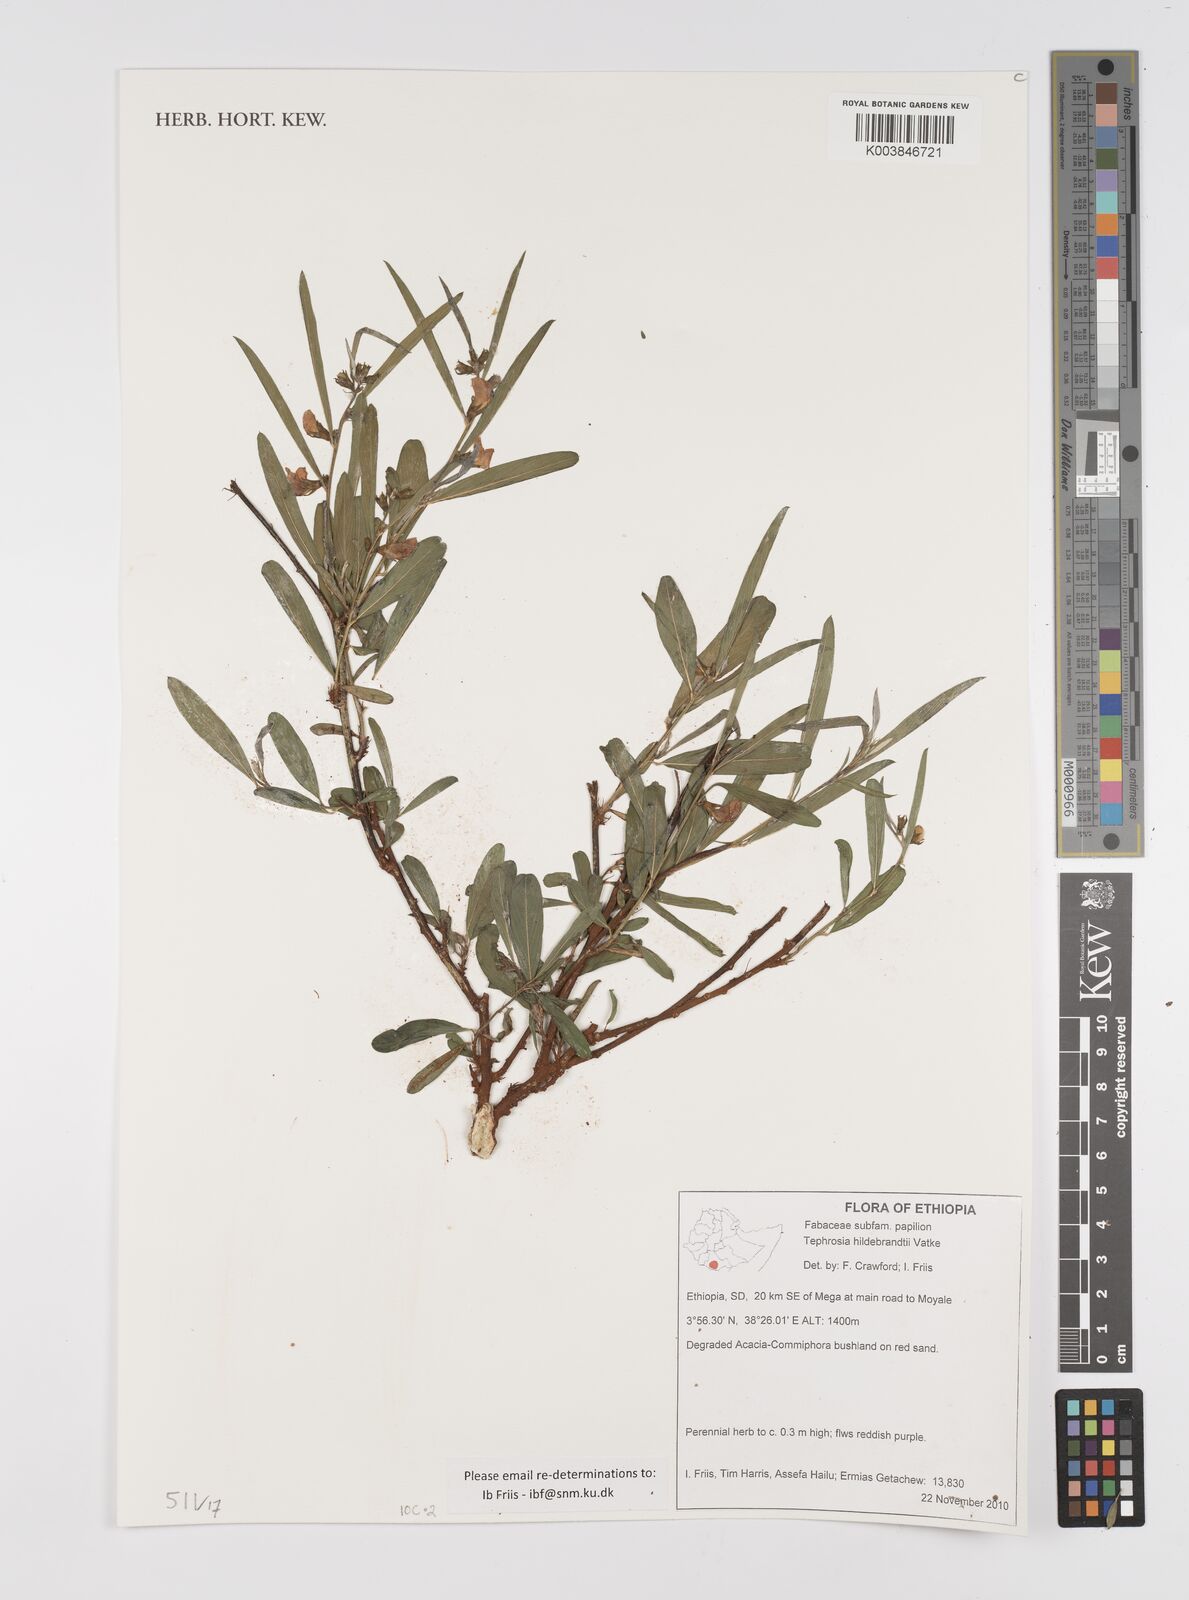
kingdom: Plantae
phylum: Tracheophyta
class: Magnoliopsida
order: Fabales
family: Fabaceae
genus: Tephrosia
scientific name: Tephrosia hildebrandtii
